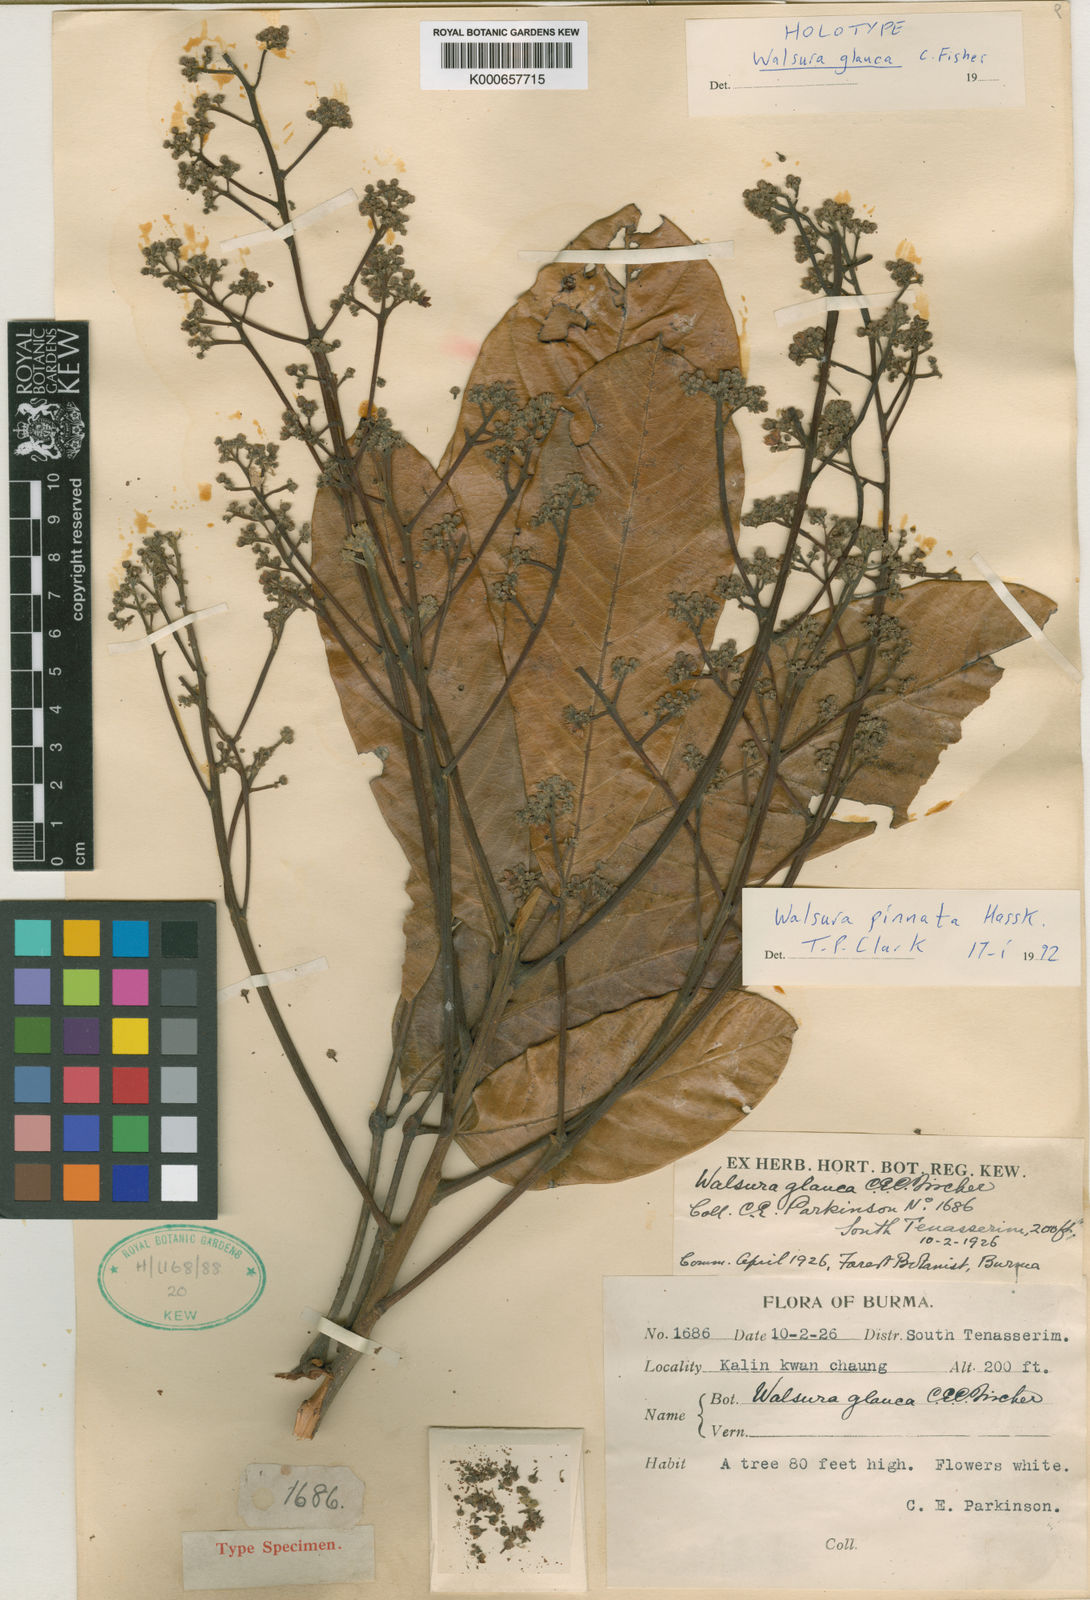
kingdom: Plantae
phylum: Tracheophyta
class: Magnoliopsida
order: Sapindales
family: Meliaceae
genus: Walsura
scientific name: Walsura pinnata
